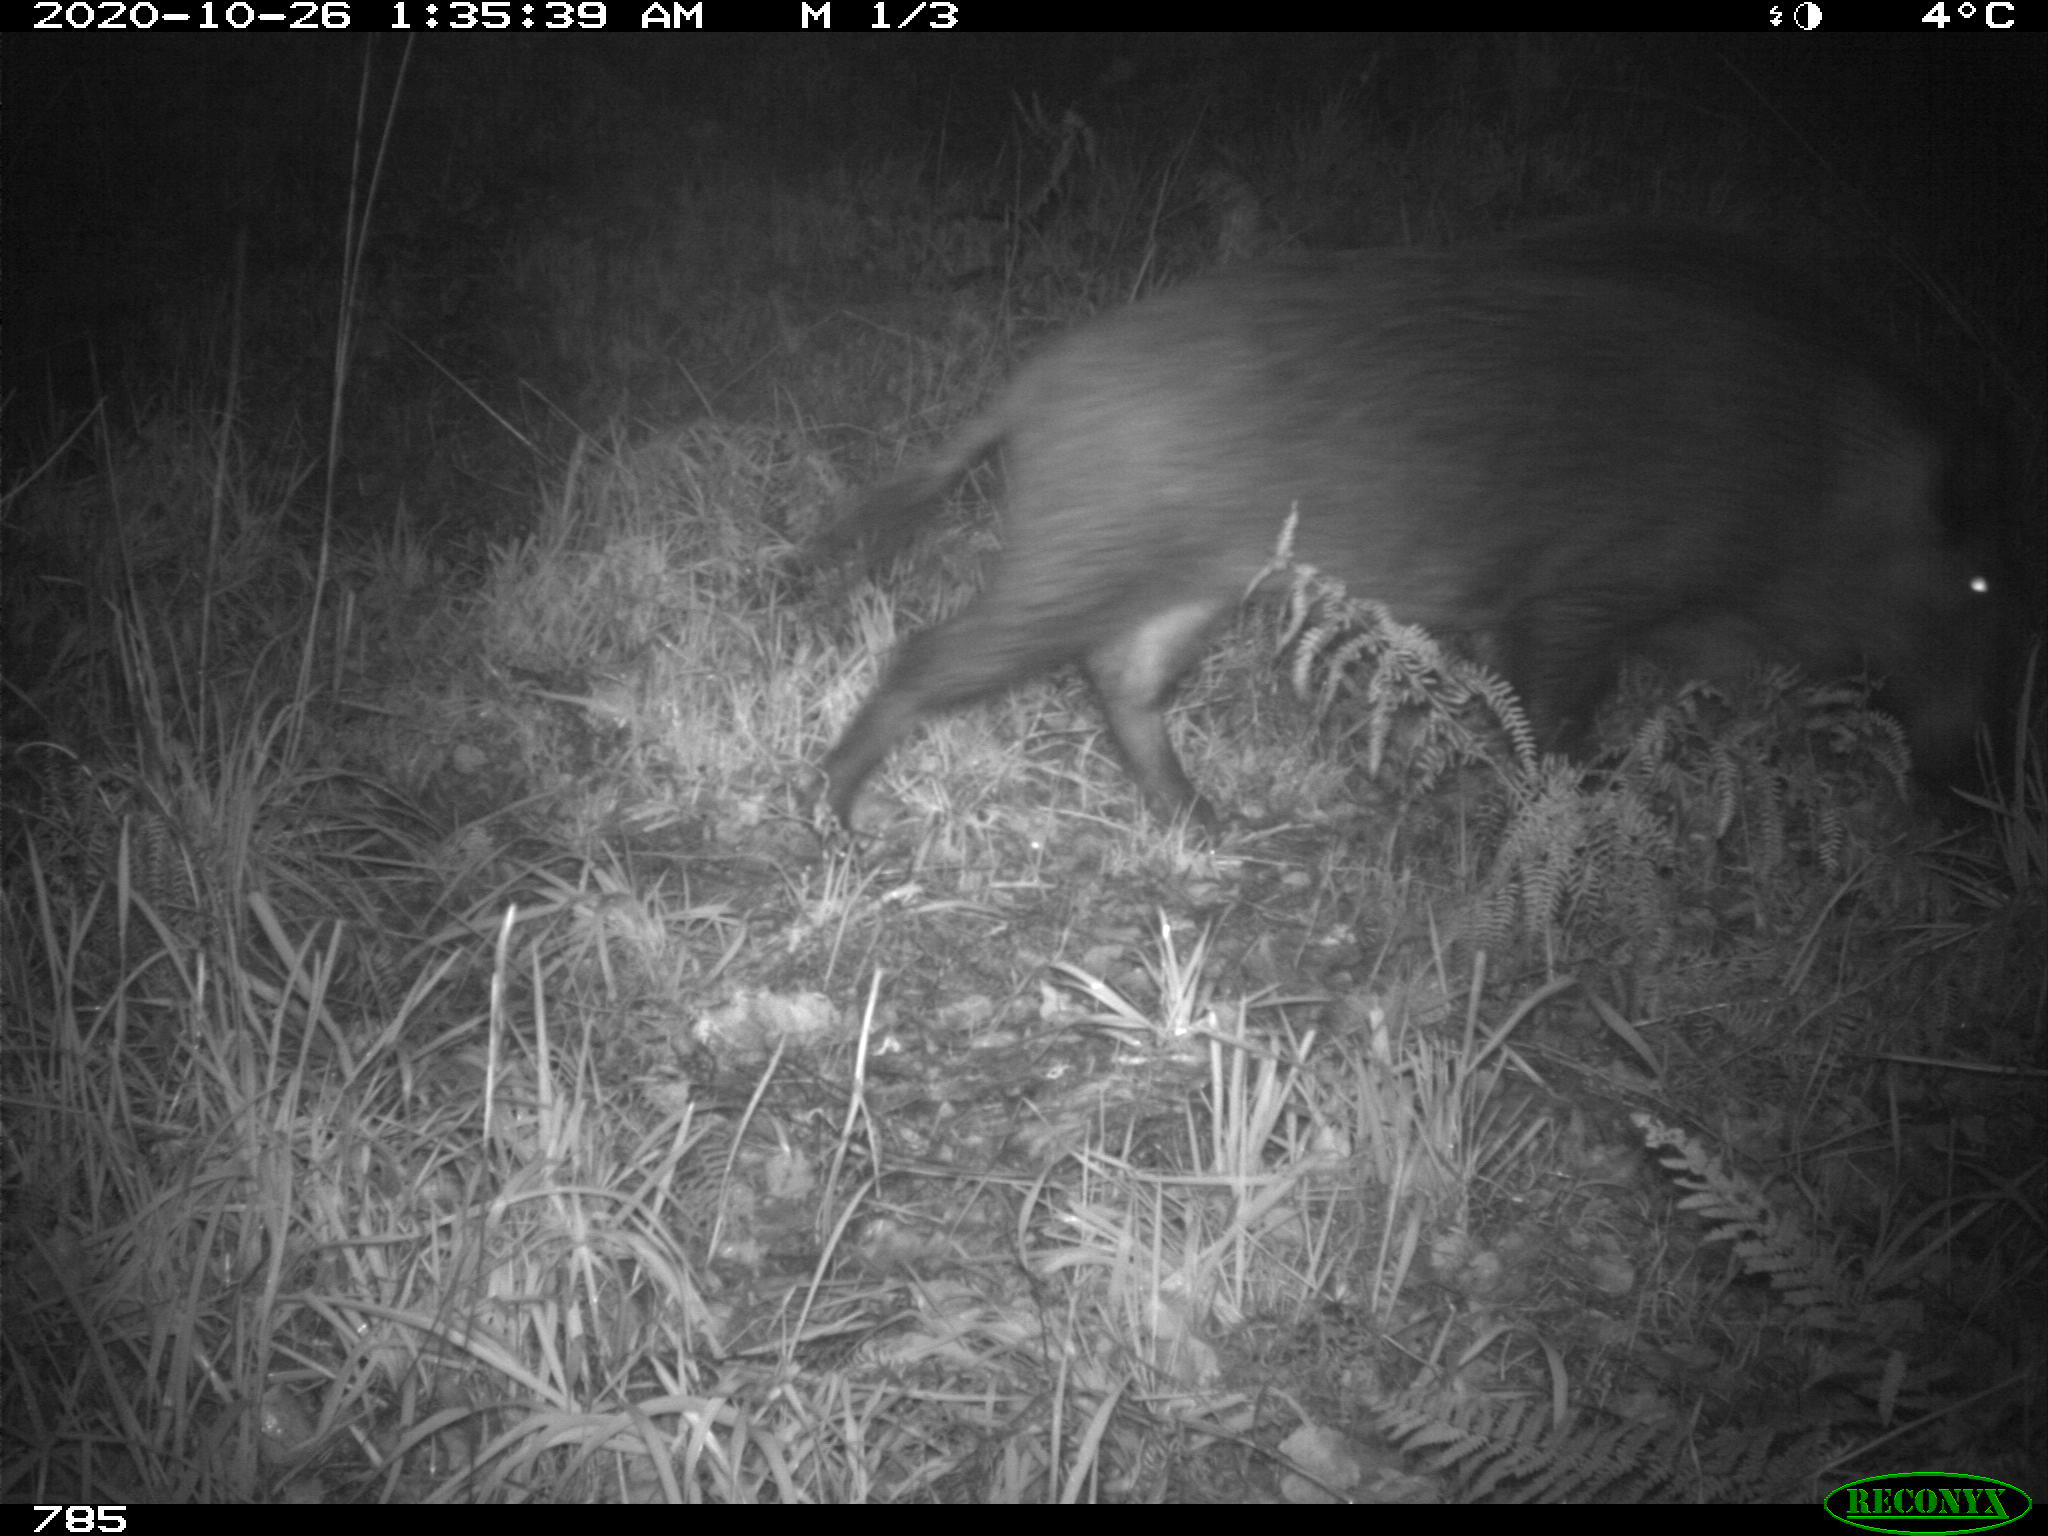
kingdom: Animalia
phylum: Chordata
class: Mammalia
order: Artiodactyla
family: Suidae
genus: Sus
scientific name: Sus scrofa
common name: Wild boar
